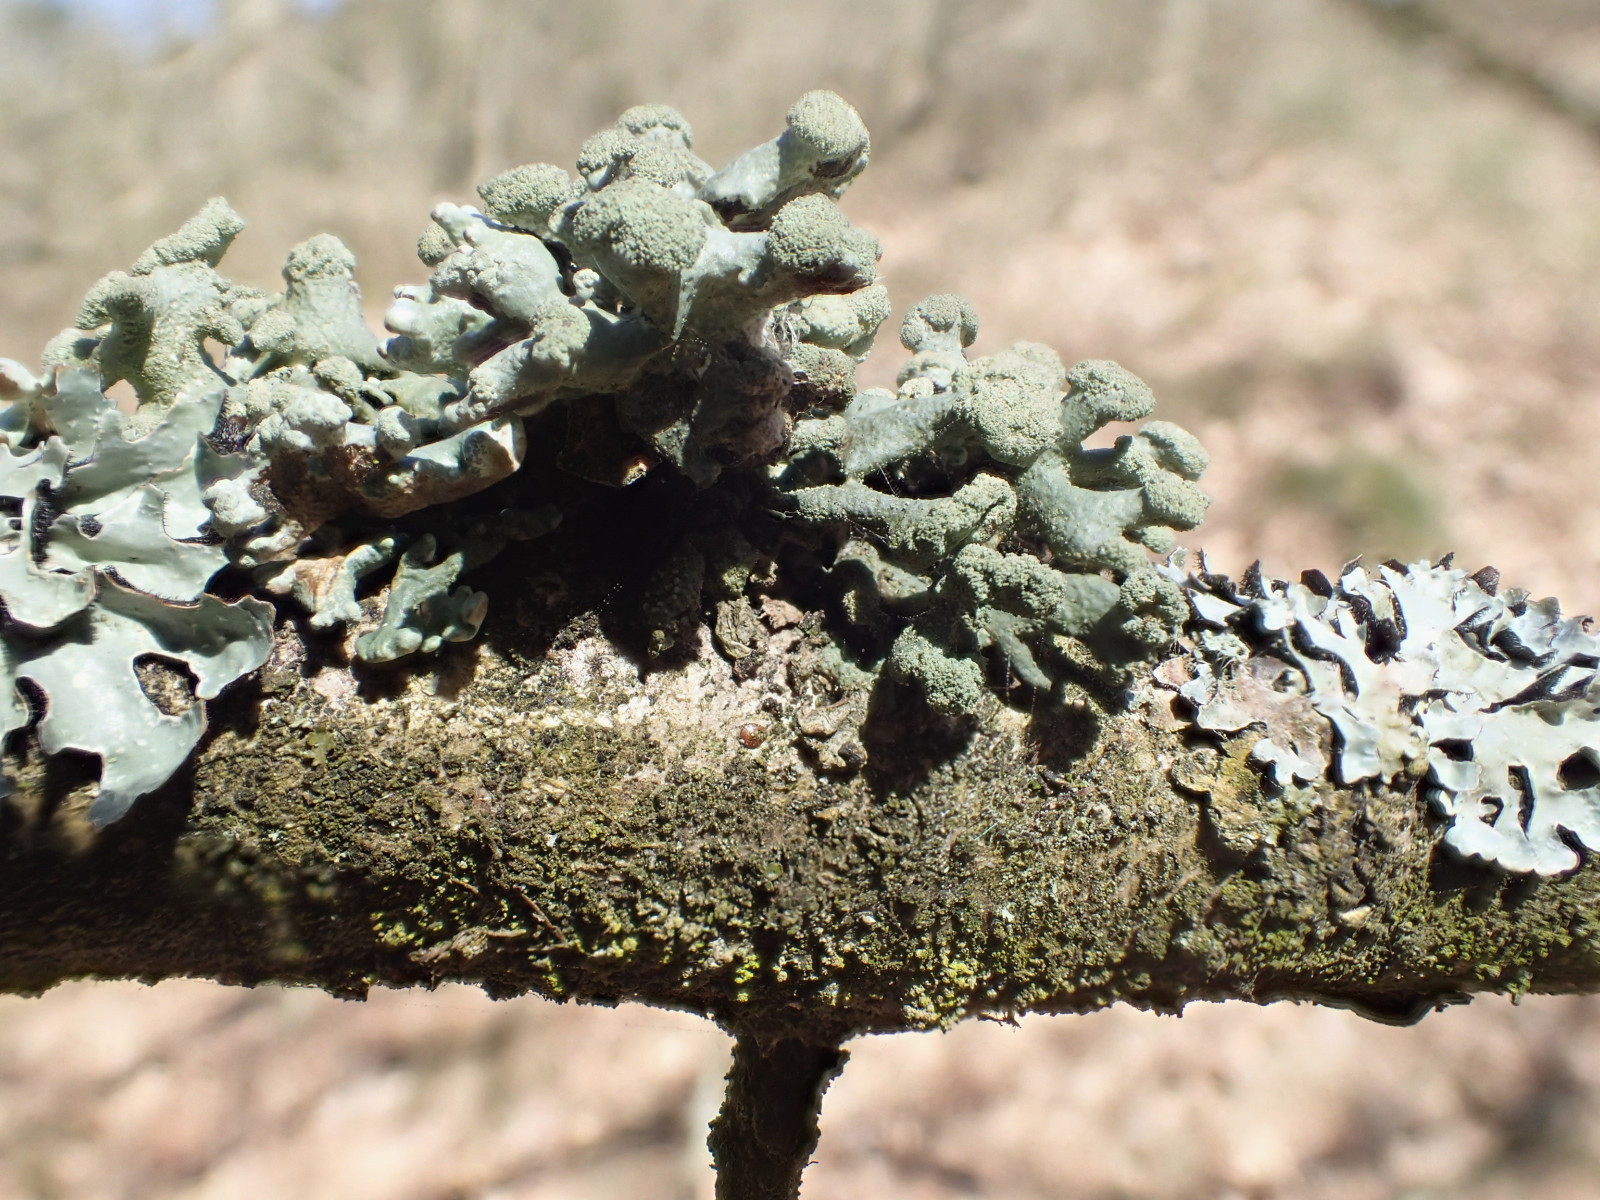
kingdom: Fungi
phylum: Ascomycota
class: Lecanoromycetes
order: Lecanorales
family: Parmeliaceae
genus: Hypogymnia
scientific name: Hypogymnia tubulosa
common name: finger-kvistlav
